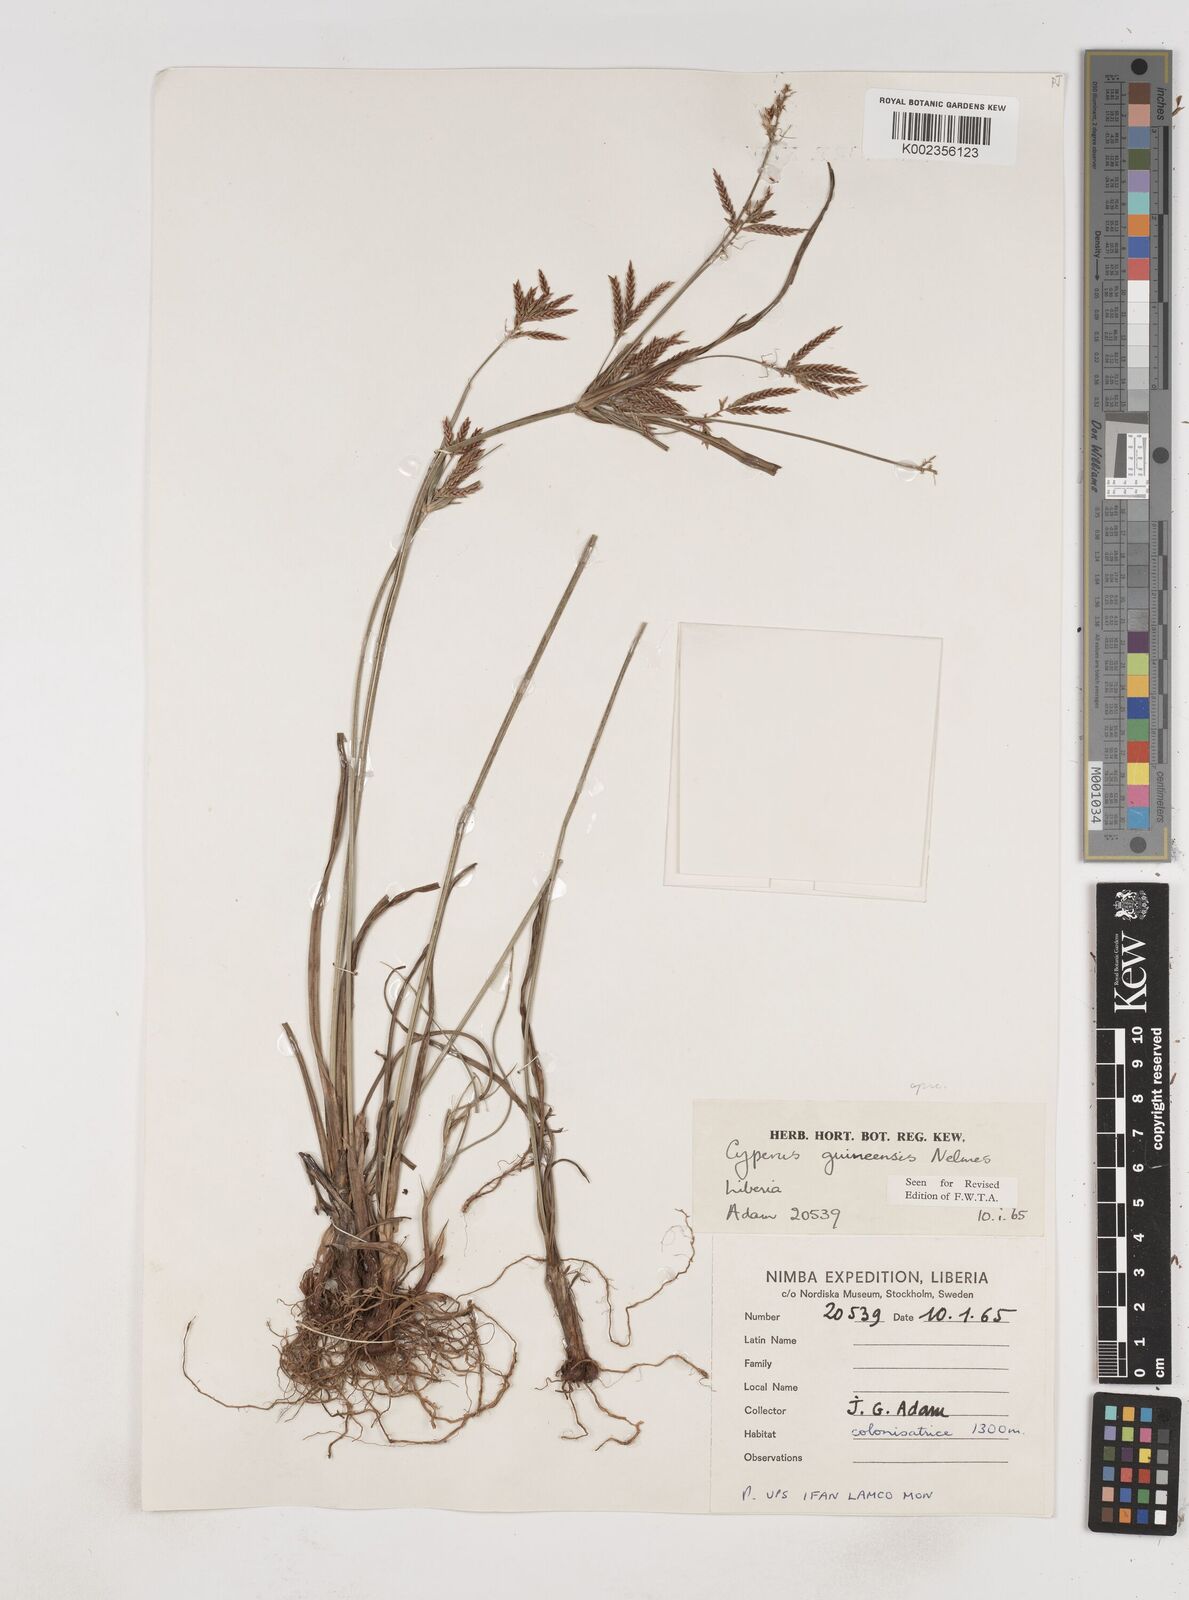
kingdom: Plantae
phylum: Tracheophyta
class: Liliopsida
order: Poales
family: Cyperaceae
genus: Cyperus
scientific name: Cyperus tenuiculmis
